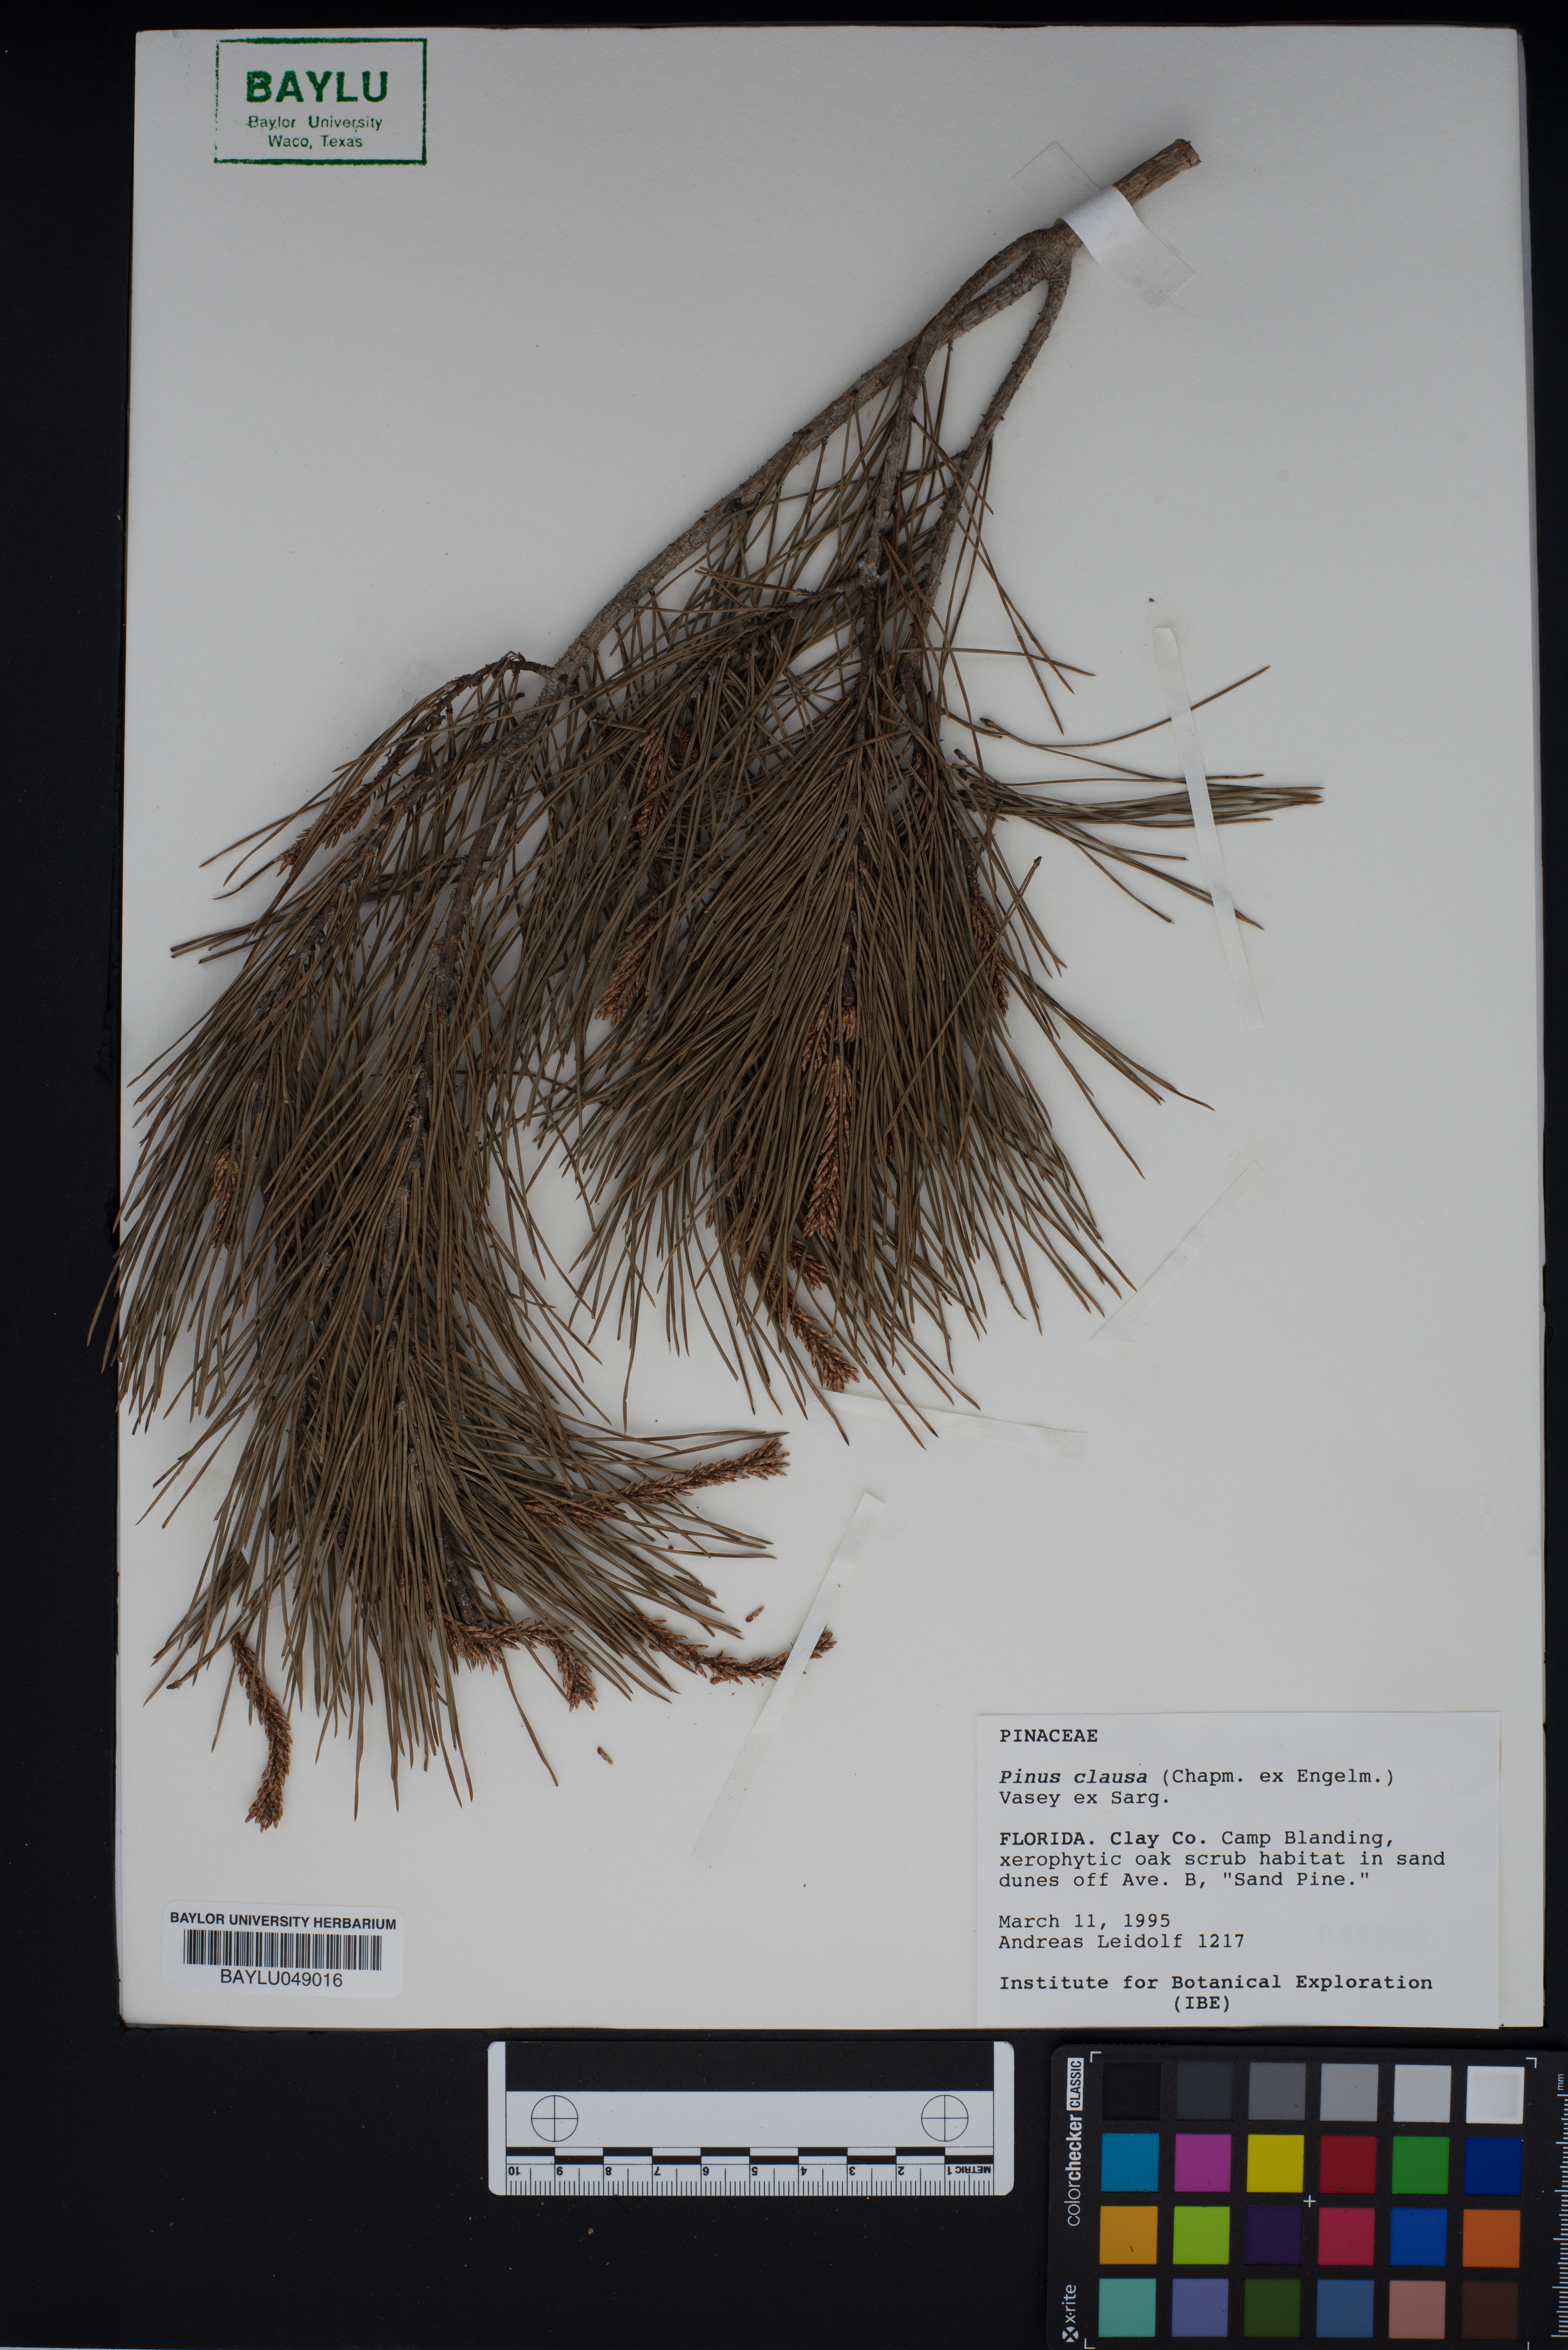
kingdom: Plantae
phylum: Tracheophyta
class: Pinopsida
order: Pinales
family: Pinaceae
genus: Pinus
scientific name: Pinus clausa
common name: Sand pine
